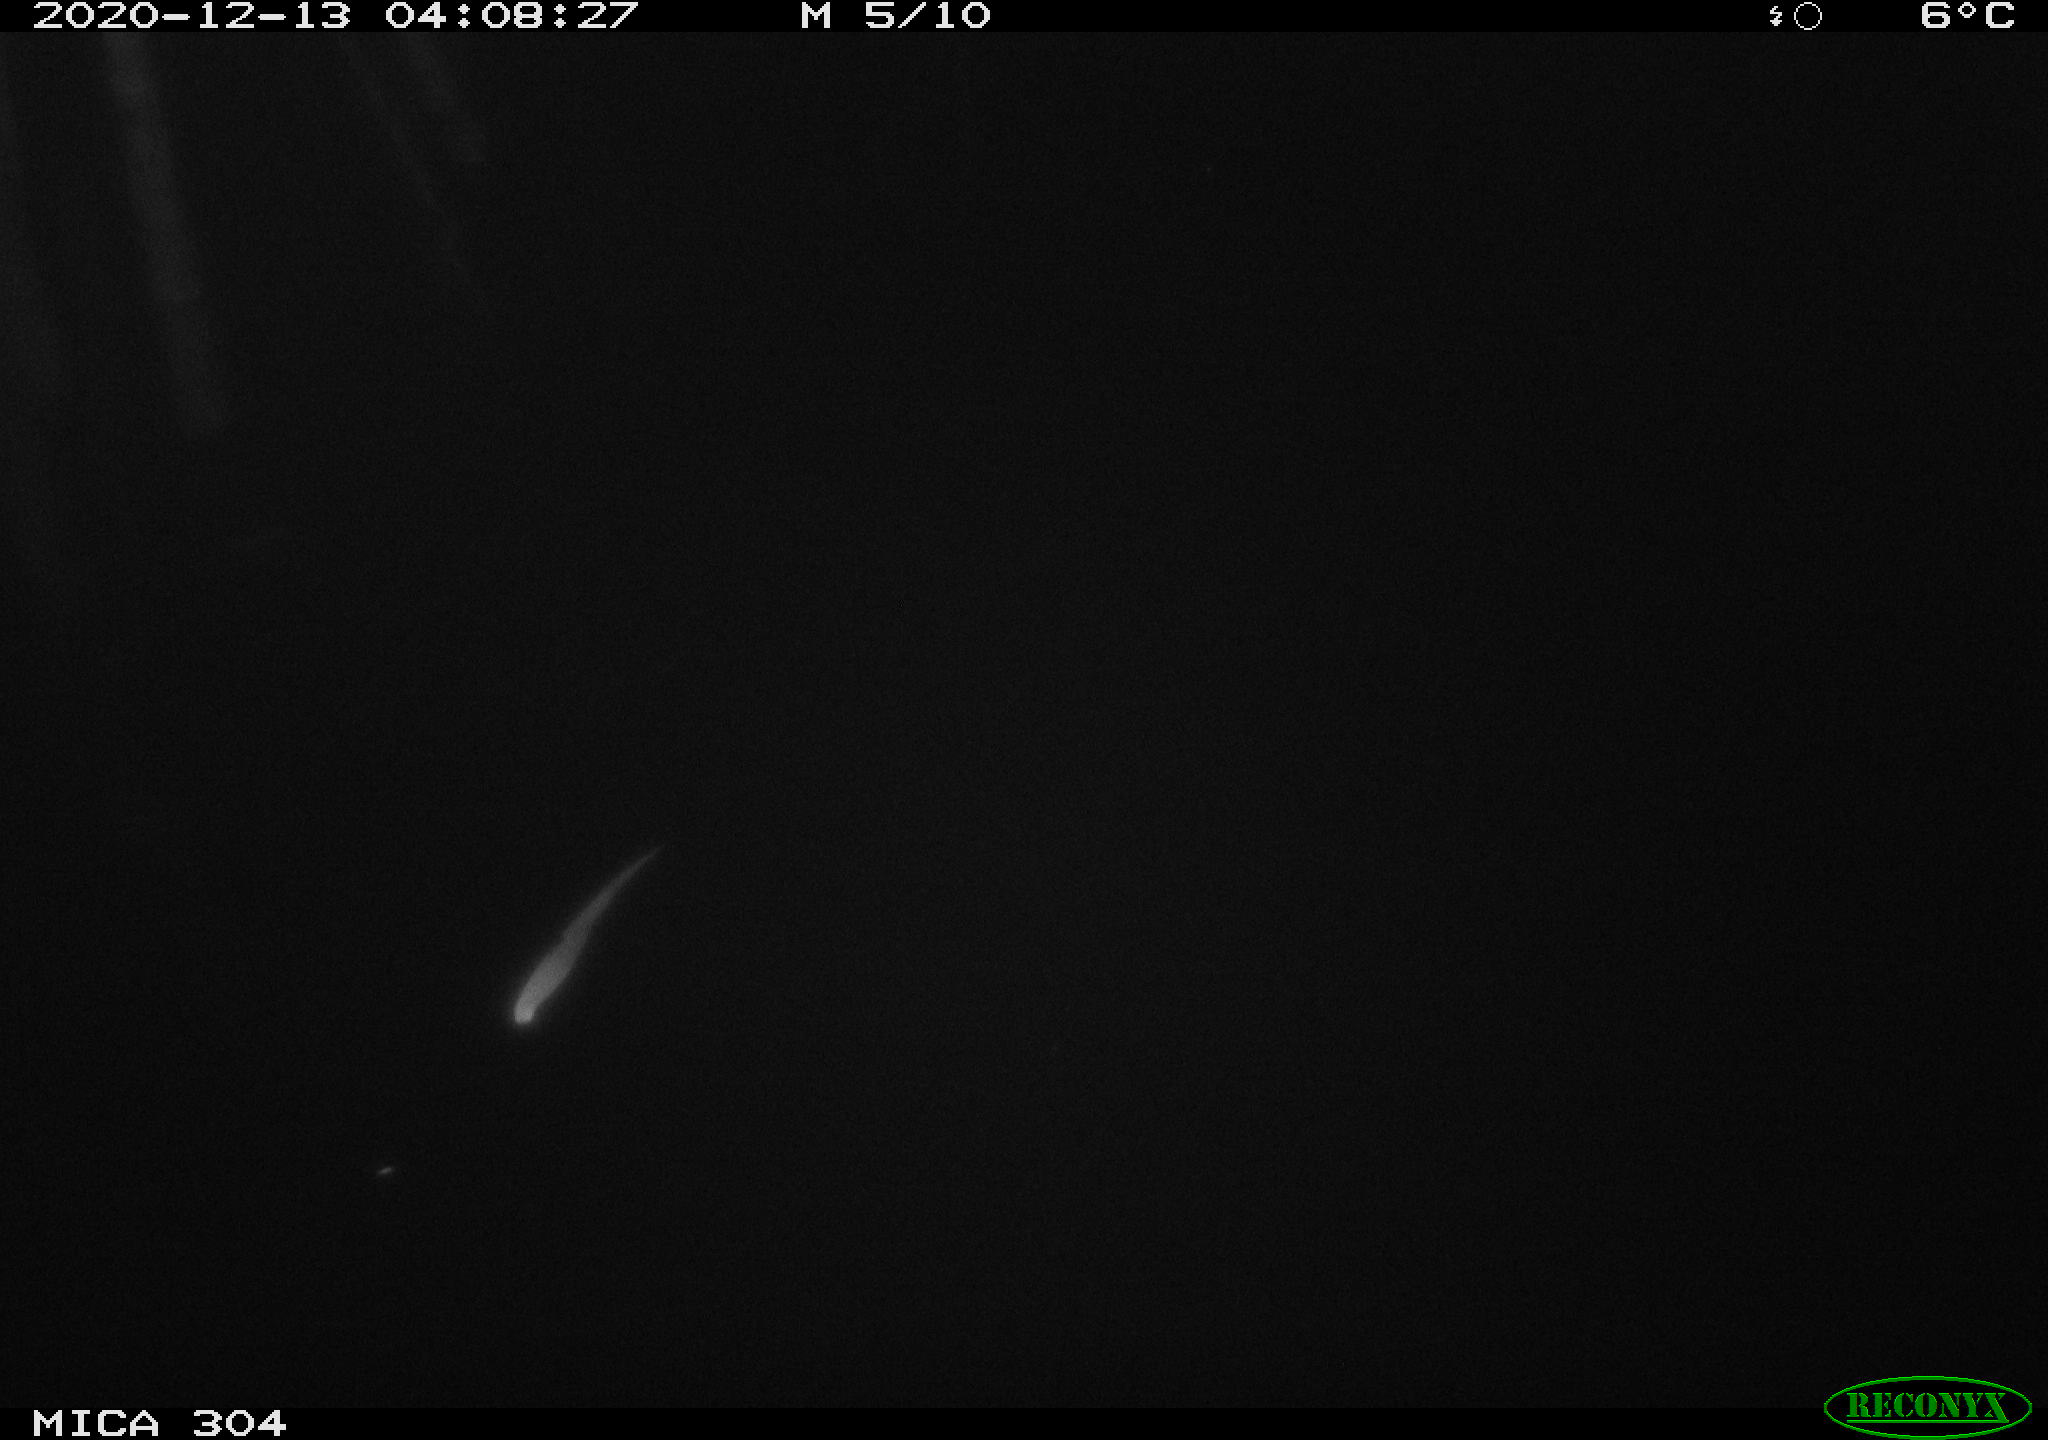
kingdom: Animalia
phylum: Chordata
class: Mammalia
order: Rodentia
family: Muridae
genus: Rattus
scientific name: Rattus norvegicus
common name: Brown rat
